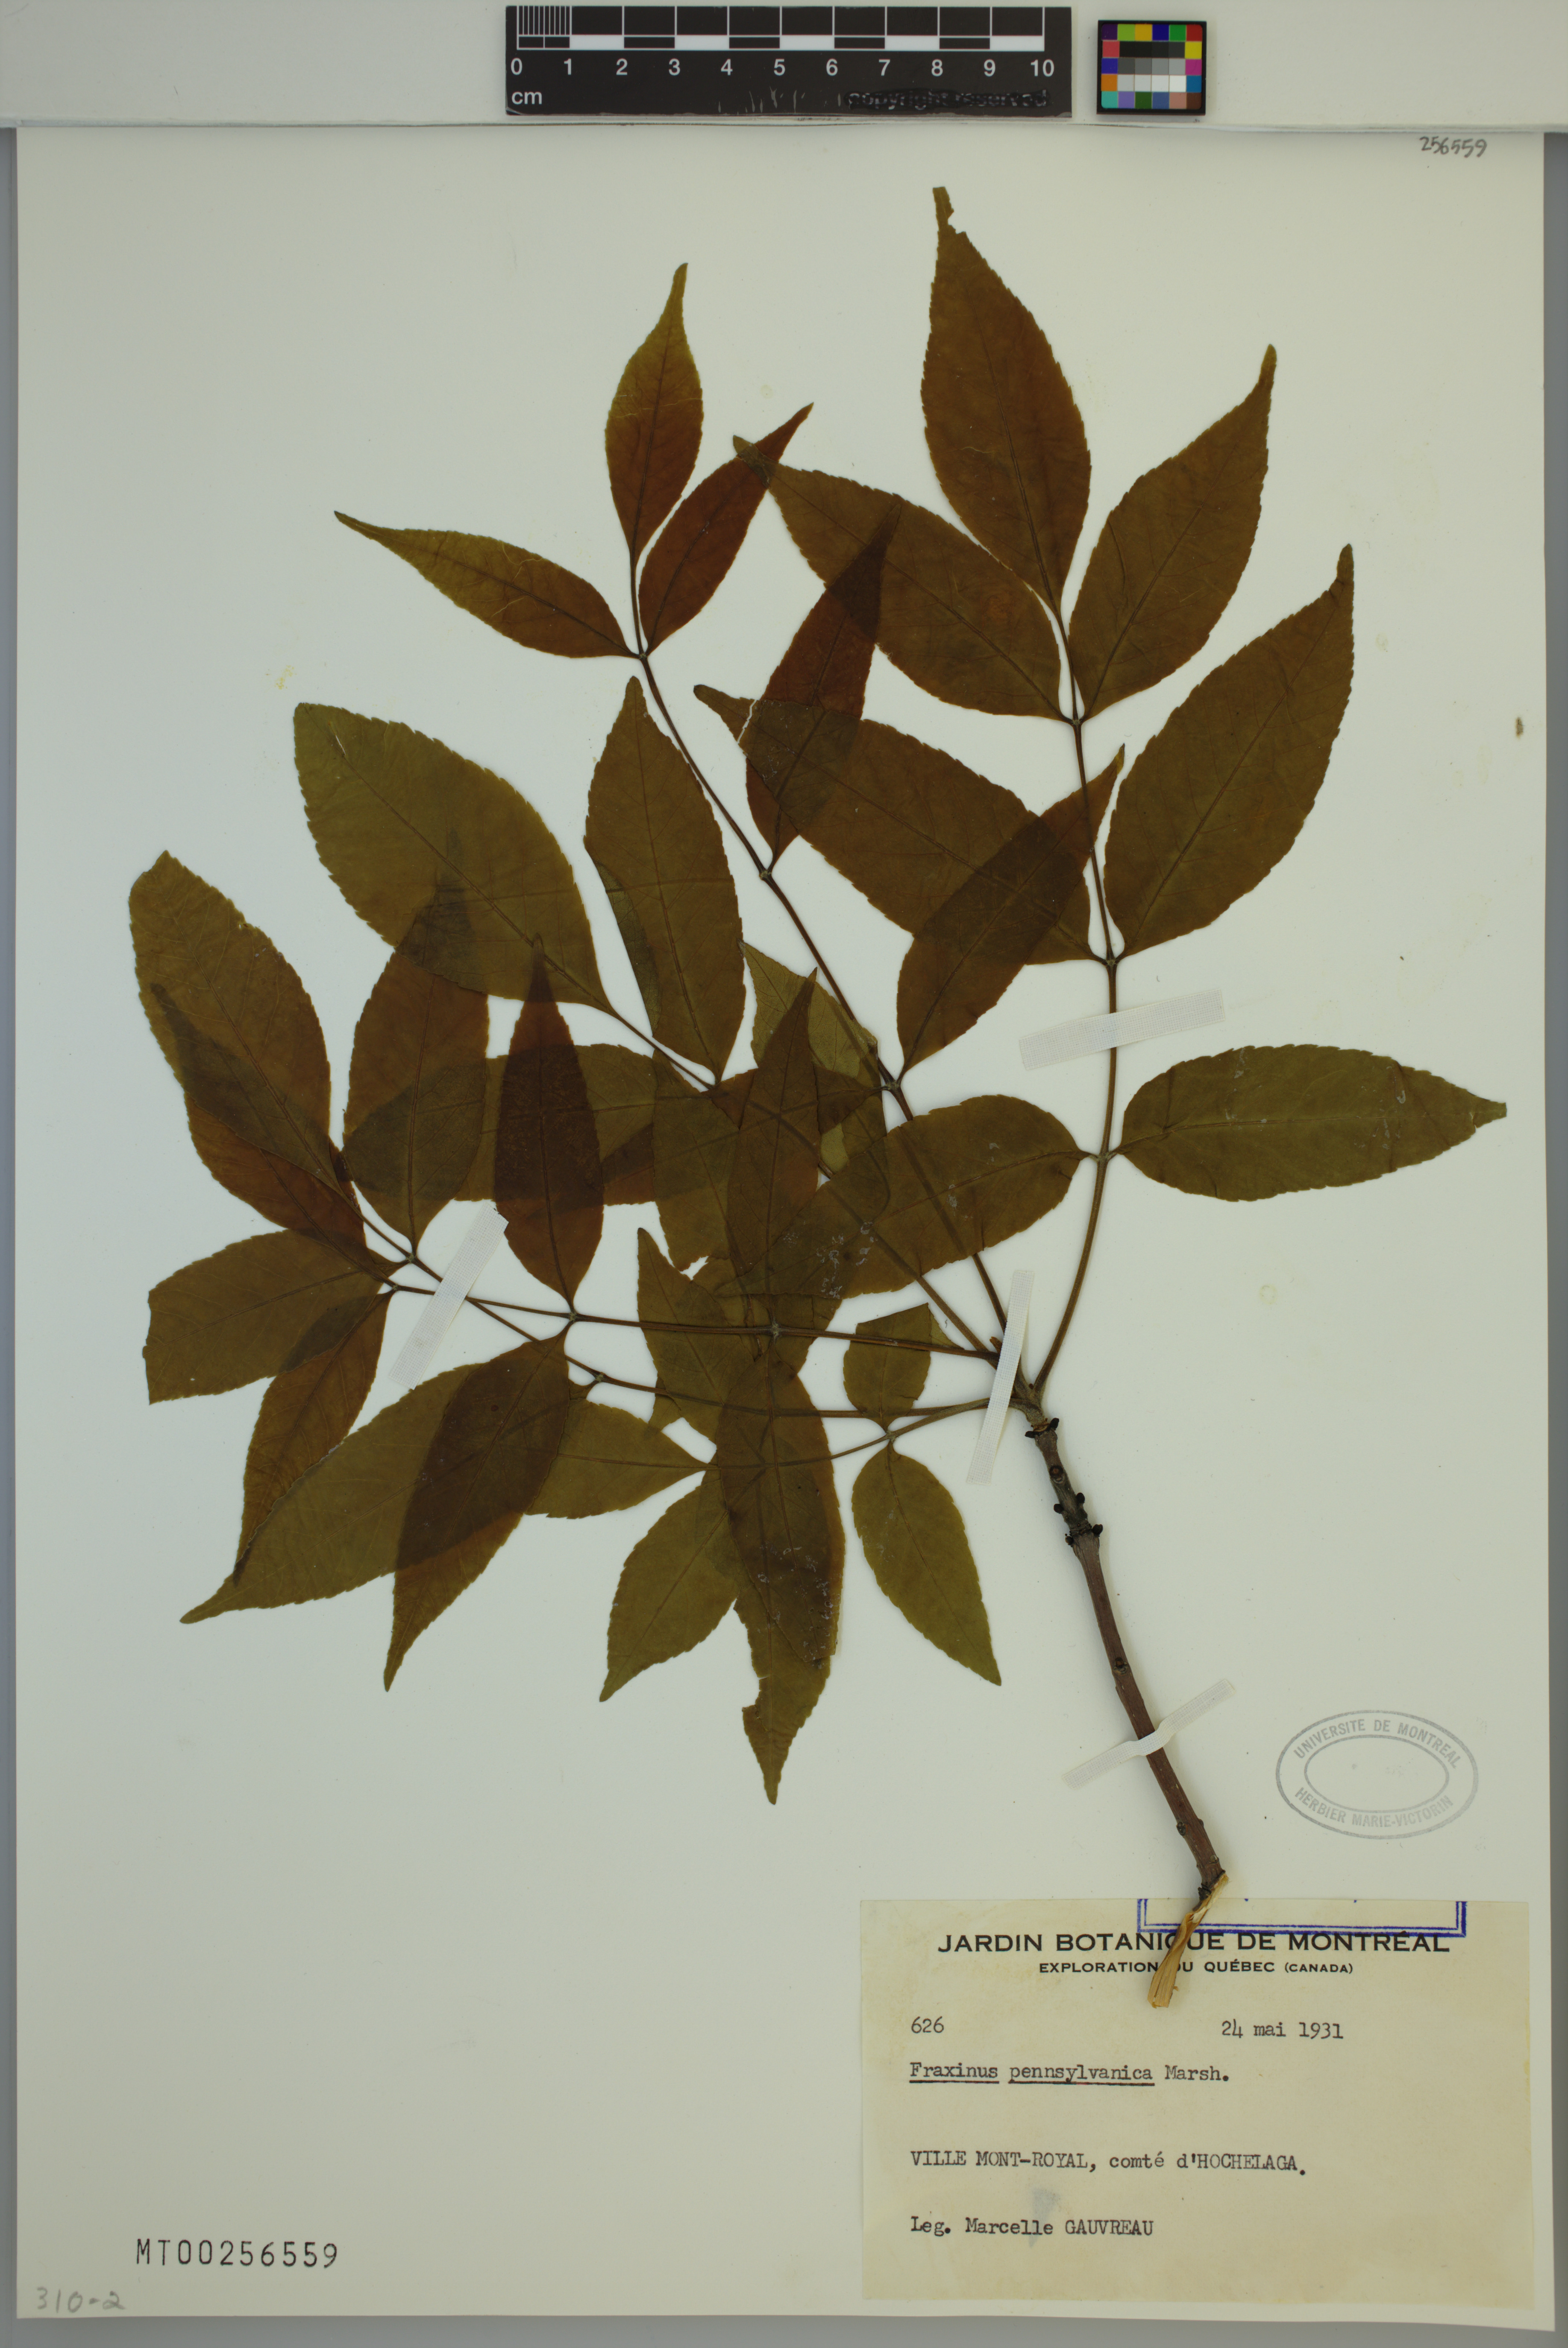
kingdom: Plantae
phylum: Tracheophyta
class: Magnoliopsida
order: Lamiales
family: Oleaceae
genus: Fraxinus
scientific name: Fraxinus pennsylvanica
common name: Green ash
